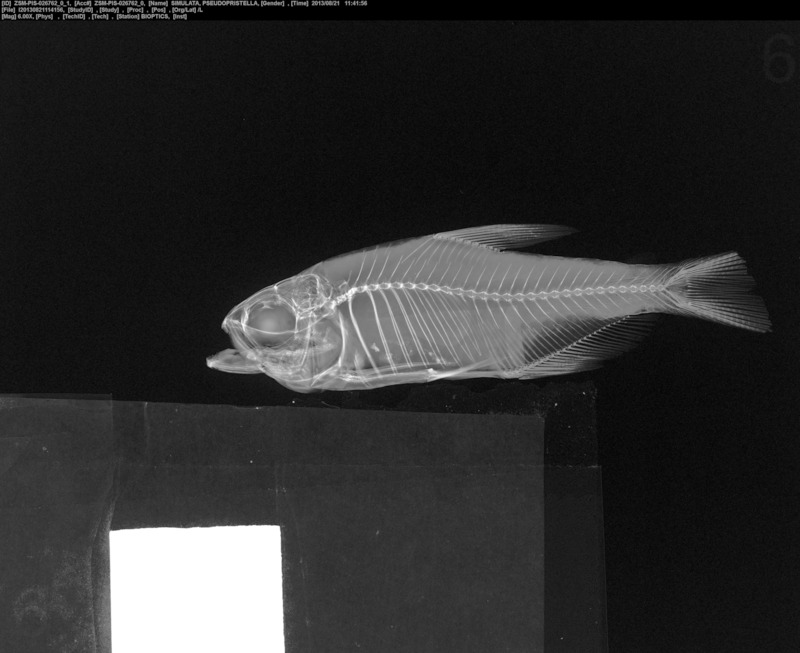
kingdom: Animalia
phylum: Chordata
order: Characiformes
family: Characidae
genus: Hyphessobrycon
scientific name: Hyphessobrycon simulatus
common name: False x-ray tetra
